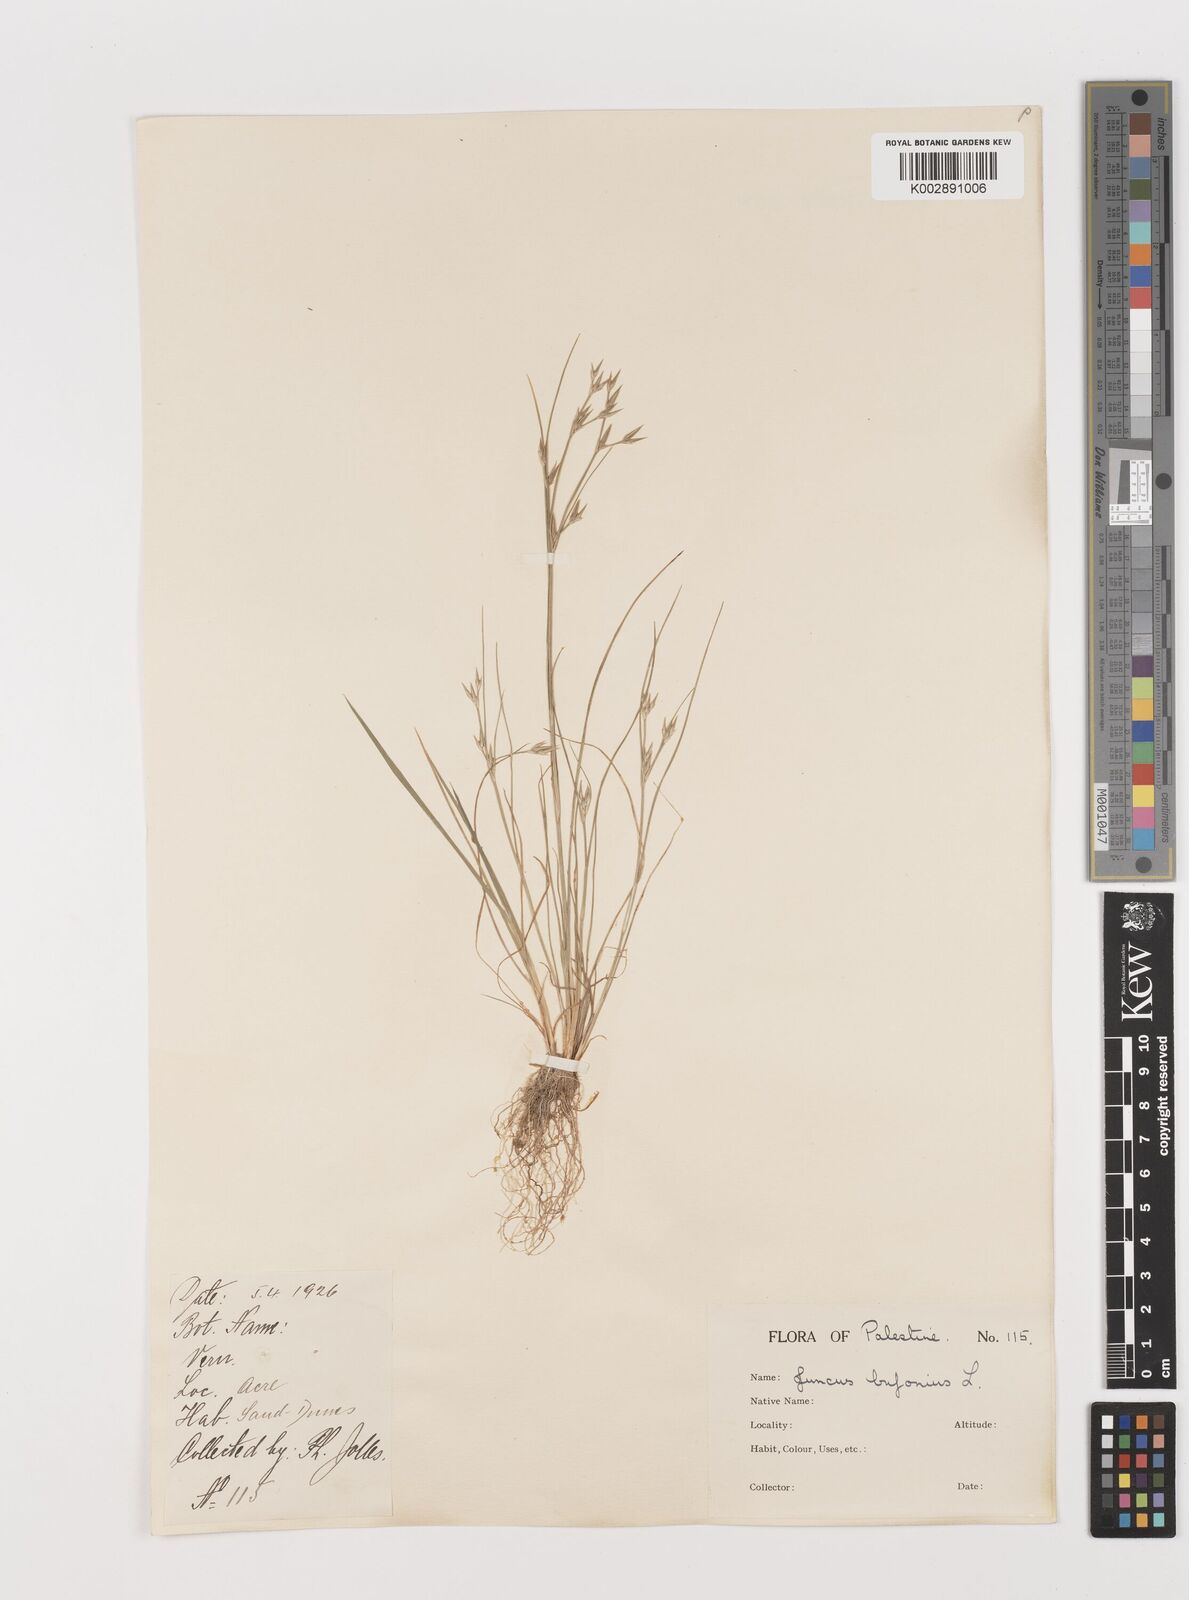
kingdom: Plantae
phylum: Tracheophyta
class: Liliopsida
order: Poales
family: Juncaceae
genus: Juncus
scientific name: Juncus bufonius
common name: Toad rush
